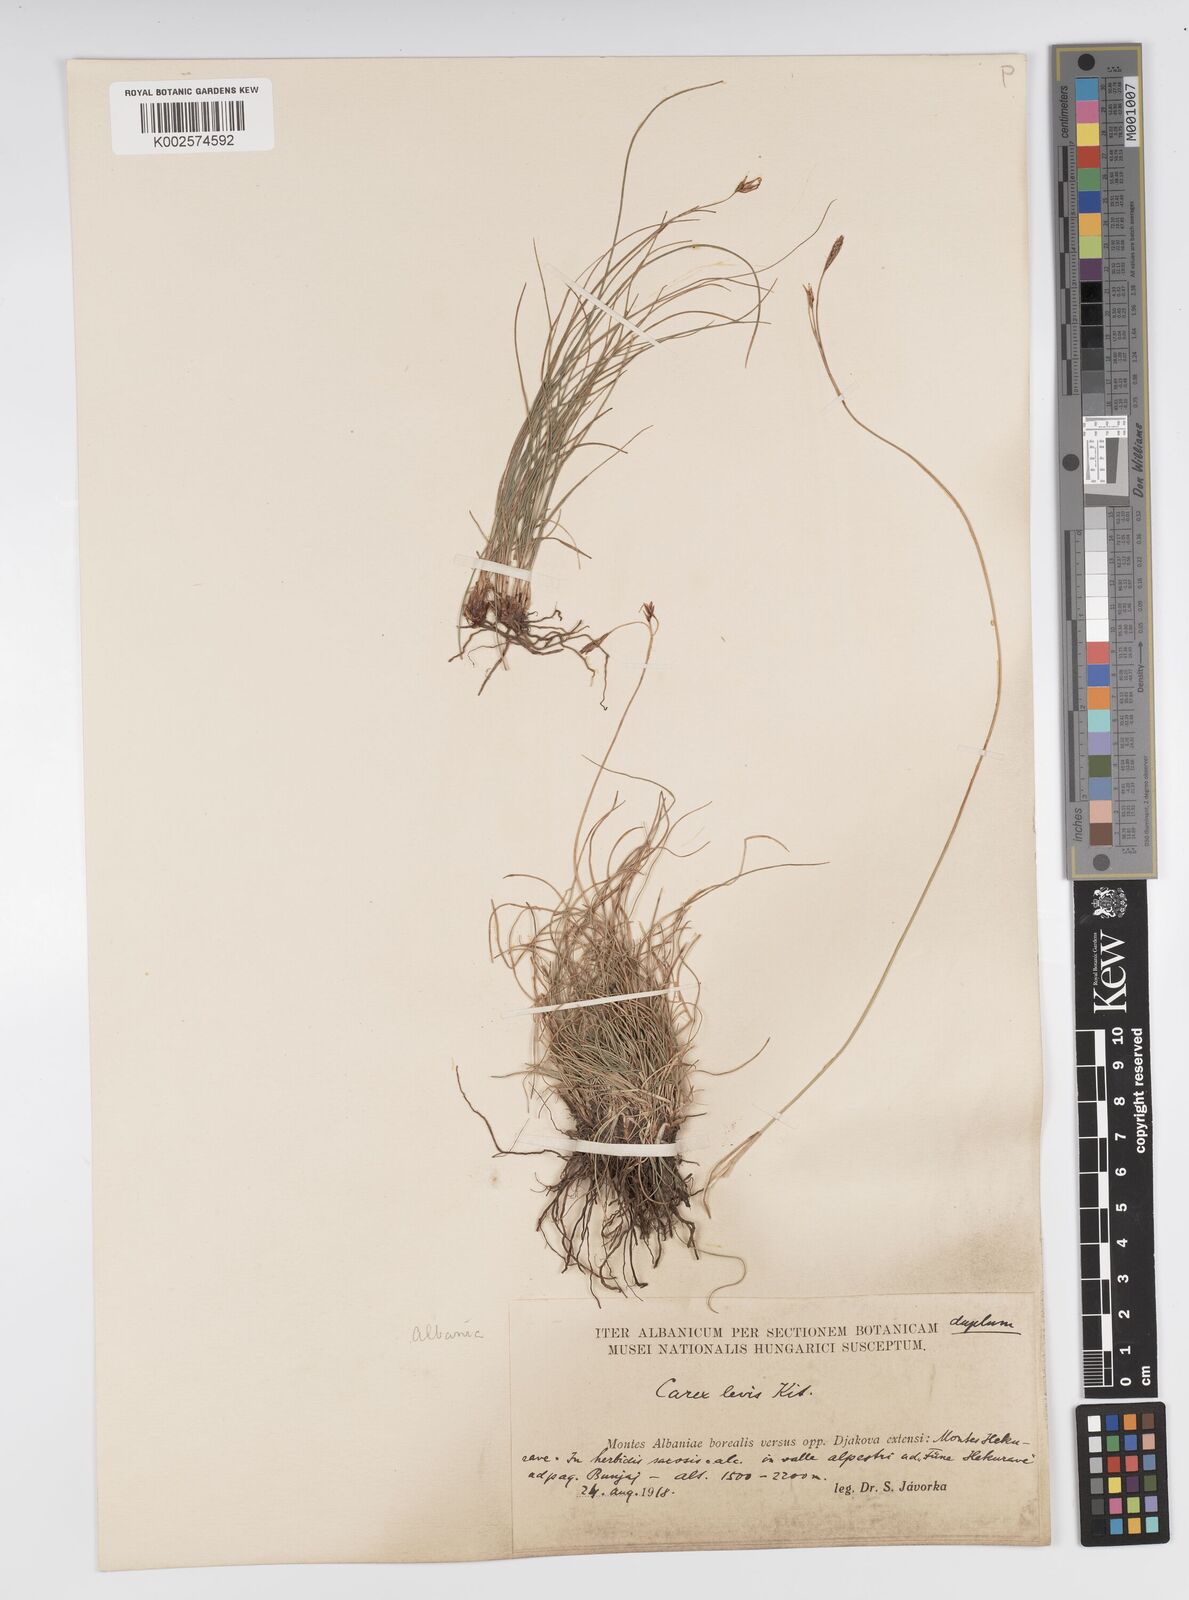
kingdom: Plantae
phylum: Tracheophyta
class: Liliopsida
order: Poales
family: Cyperaceae
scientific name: Cyperaceae
